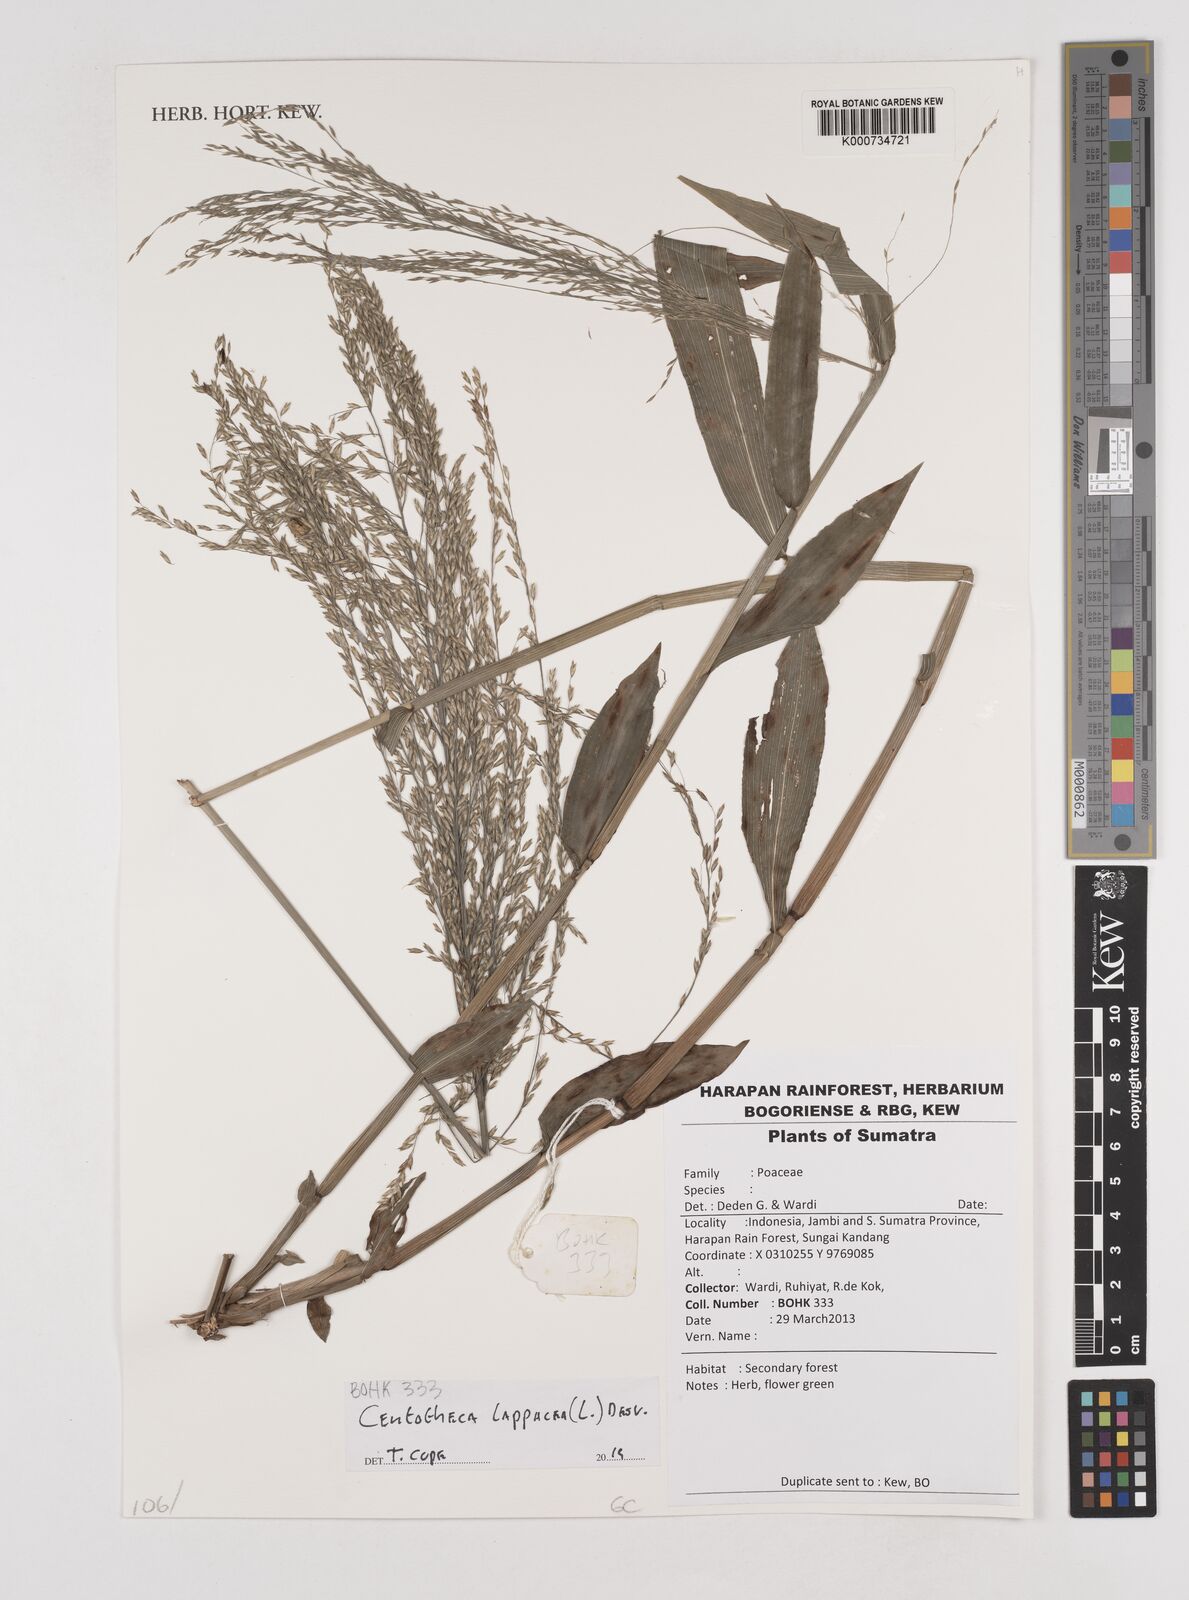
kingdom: Plantae
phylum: Tracheophyta
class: Liliopsida
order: Poales
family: Poaceae
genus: Centotheca
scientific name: Centotheca lappacea
